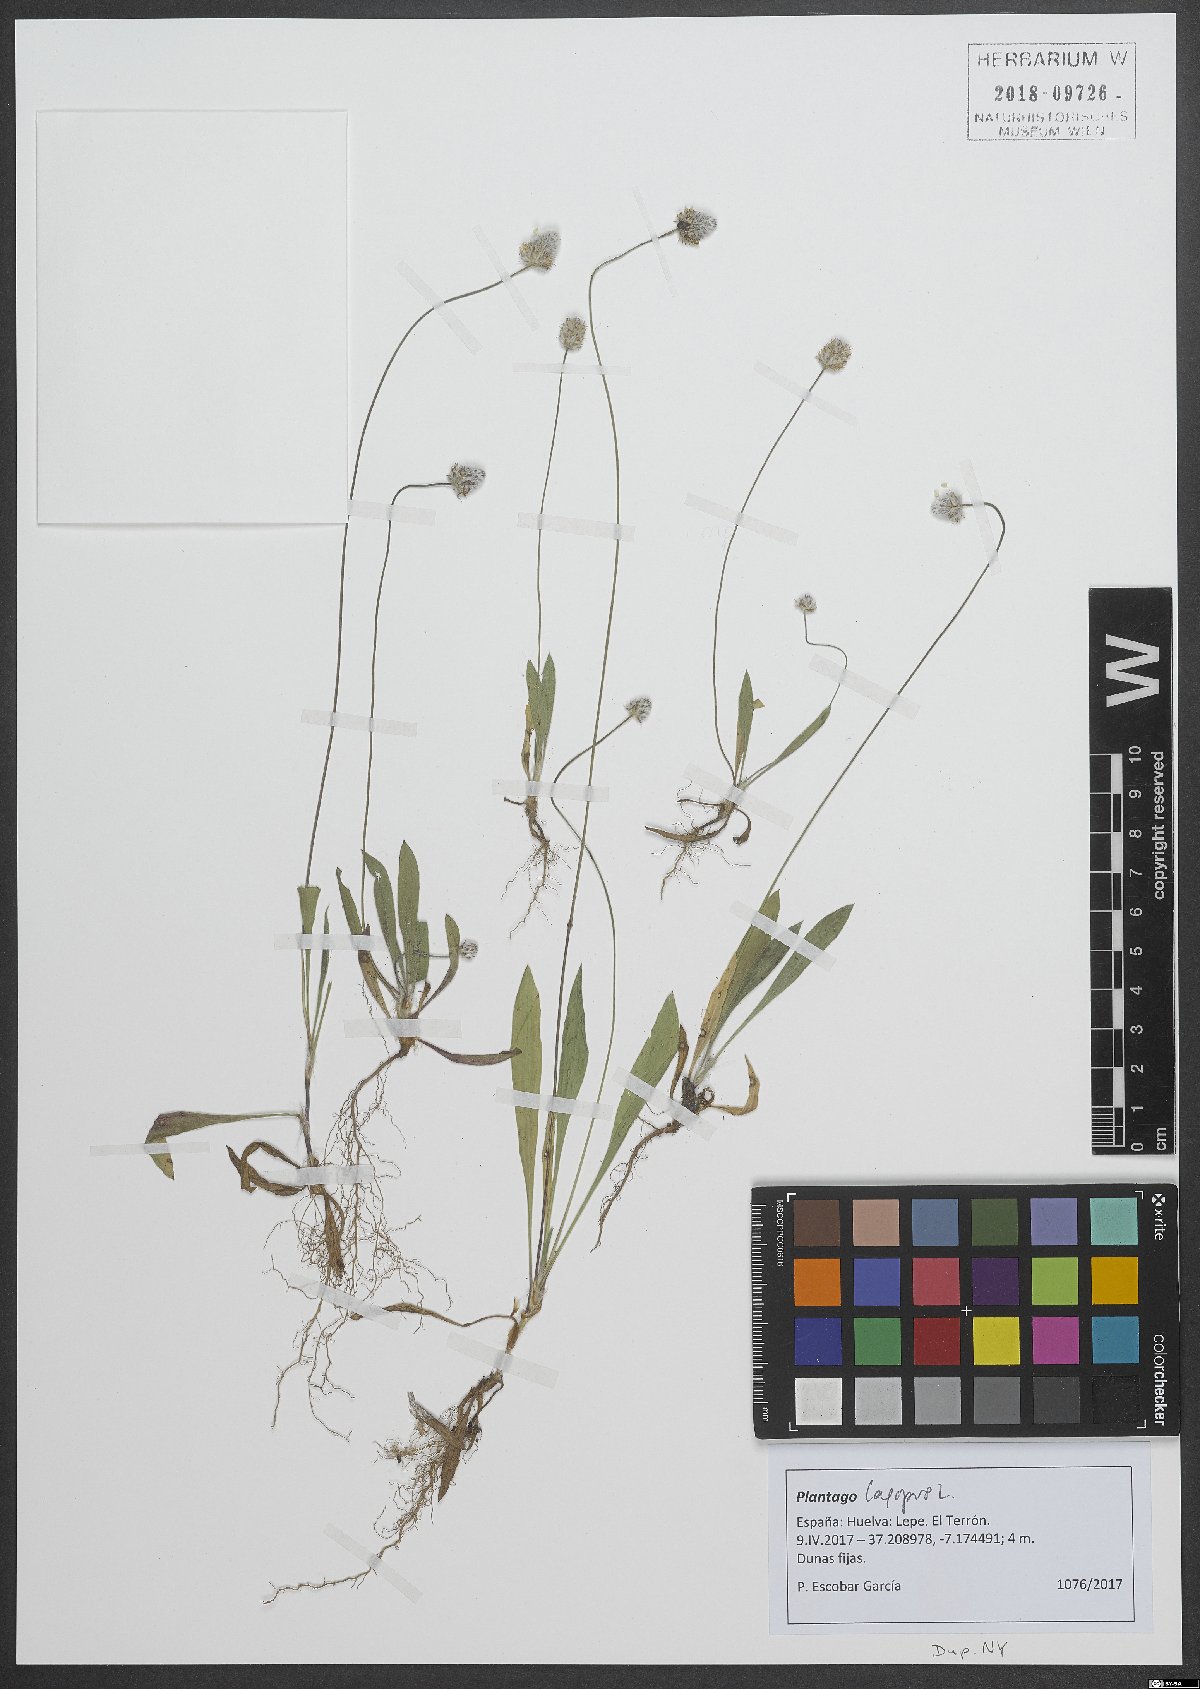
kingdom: Plantae
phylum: Tracheophyta
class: Magnoliopsida
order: Lamiales
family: Plantaginaceae
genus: Plantago
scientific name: Plantago lagopus
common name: Hare-foot plantain
